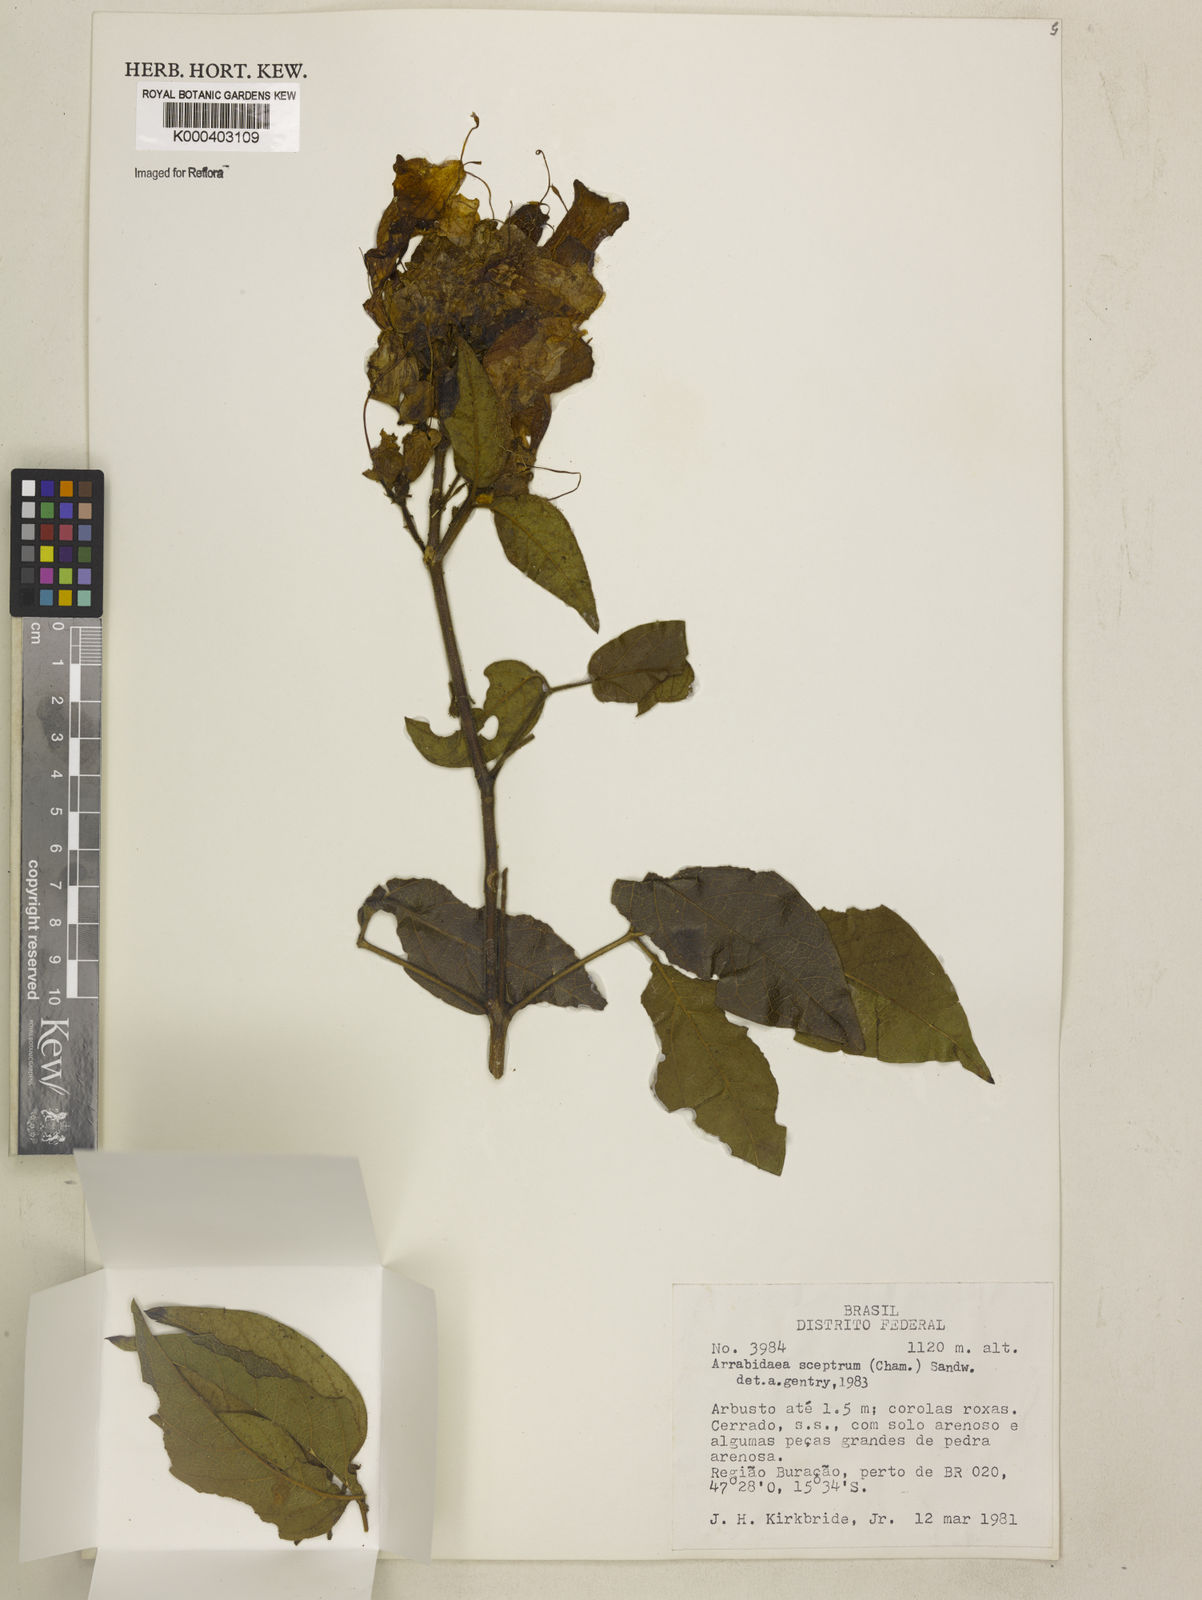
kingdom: Plantae
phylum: Tracheophyta
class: Magnoliopsida
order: Lamiales
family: Bignoniaceae
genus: Cuspidaria
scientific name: Cuspidaria sceptrum
